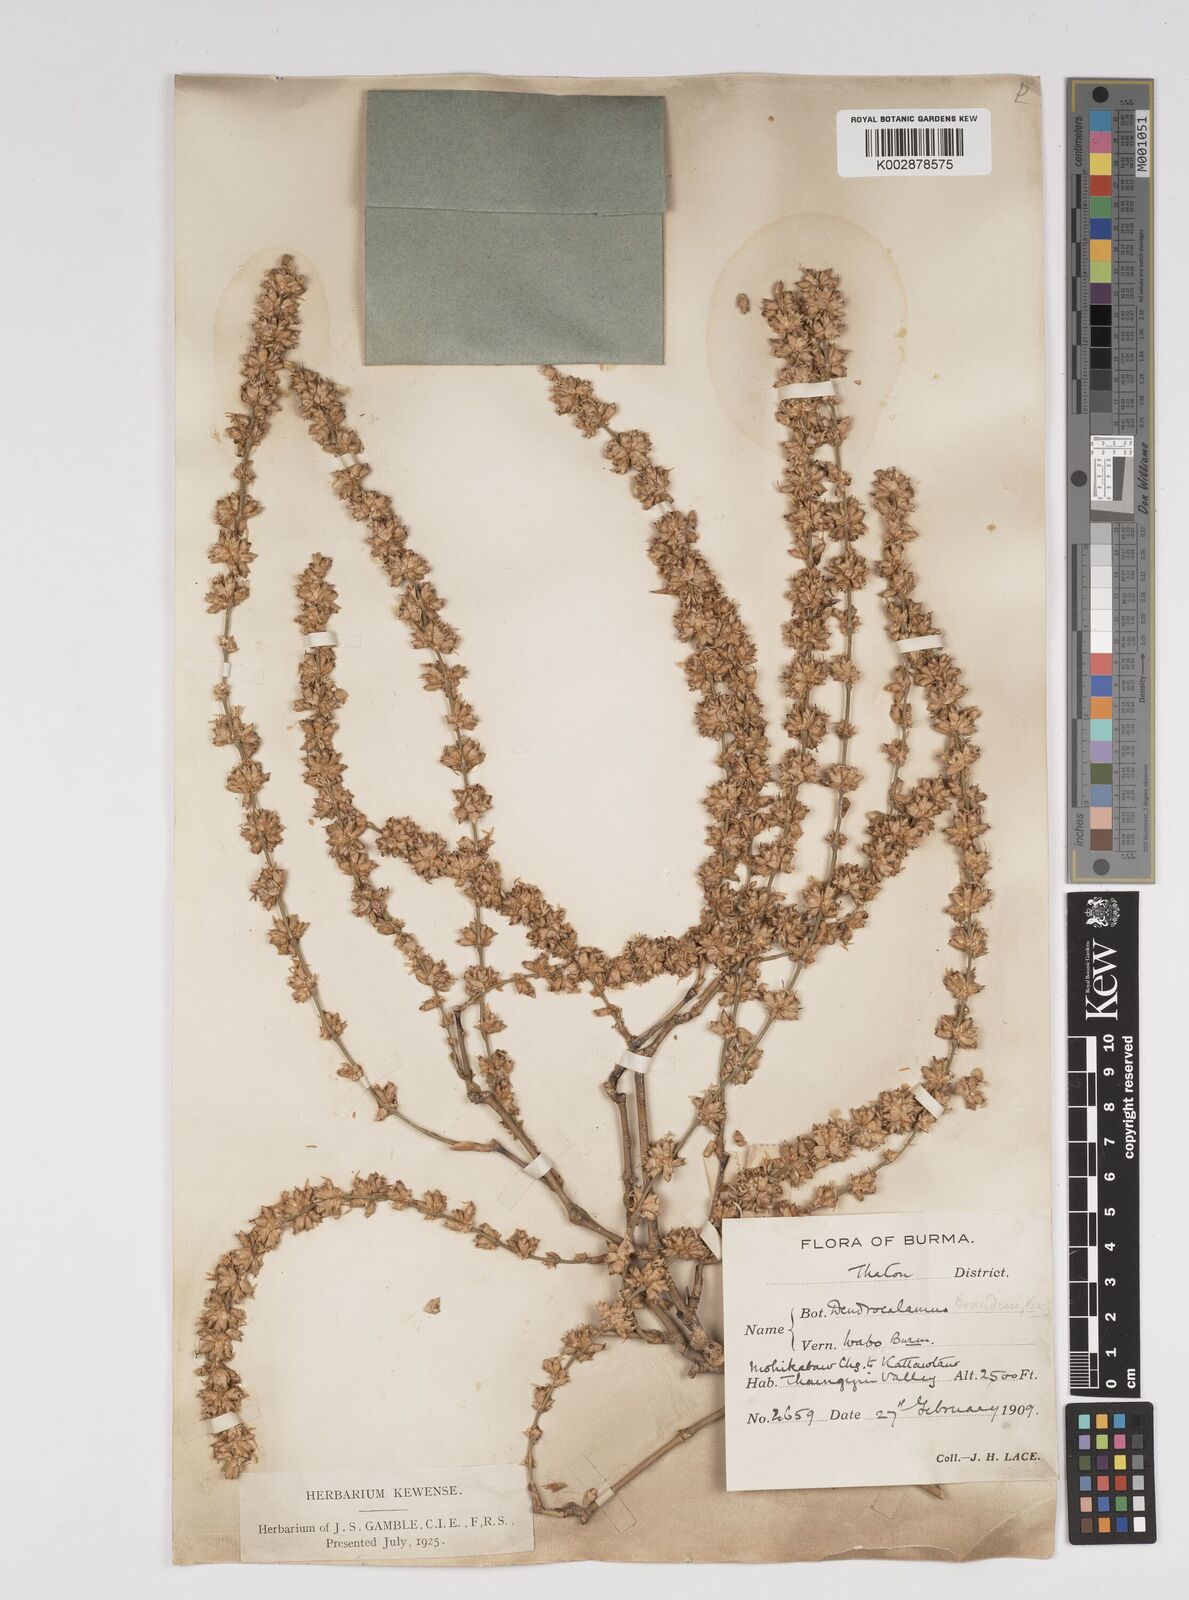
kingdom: Plantae
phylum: Tracheophyta
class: Liliopsida
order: Poales
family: Poaceae
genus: Dendrocalamus
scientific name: Dendrocalamus brandisii
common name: Velvetleaf bamboo
